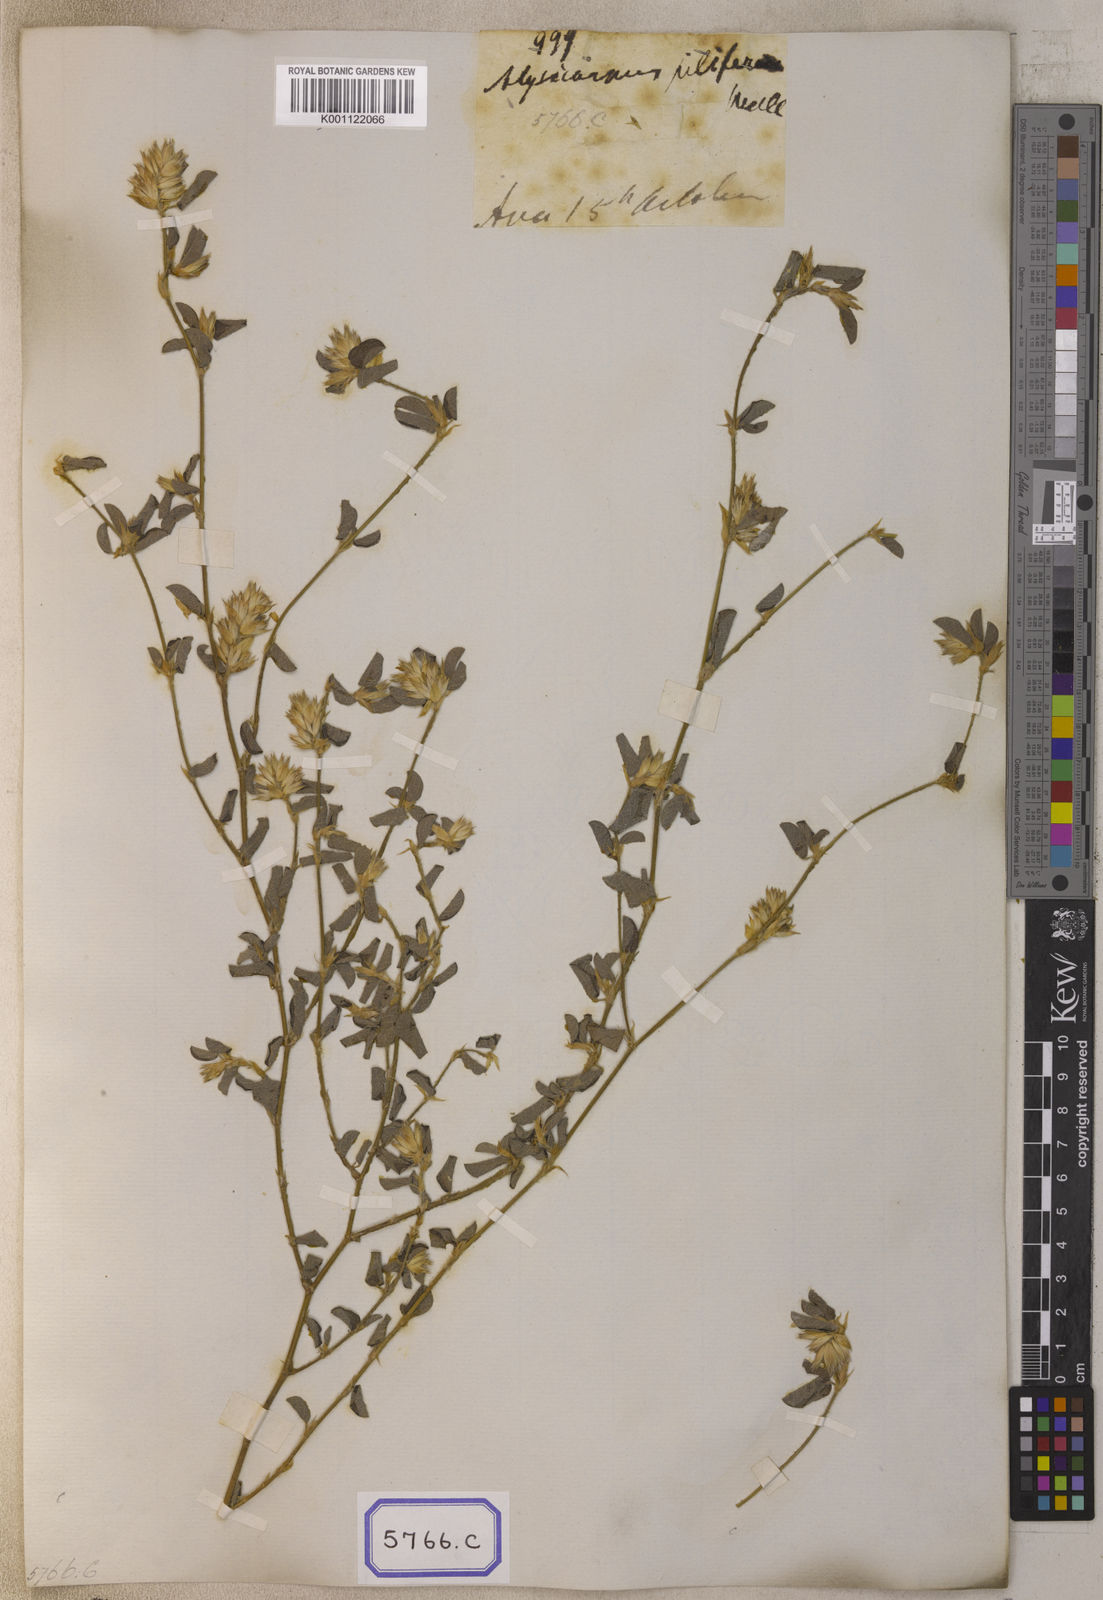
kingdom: Plantae
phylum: Tracheophyta
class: Magnoliopsida
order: Fabales
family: Fabaceae
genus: Alysicarpus
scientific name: Alysicarpus scariosus
